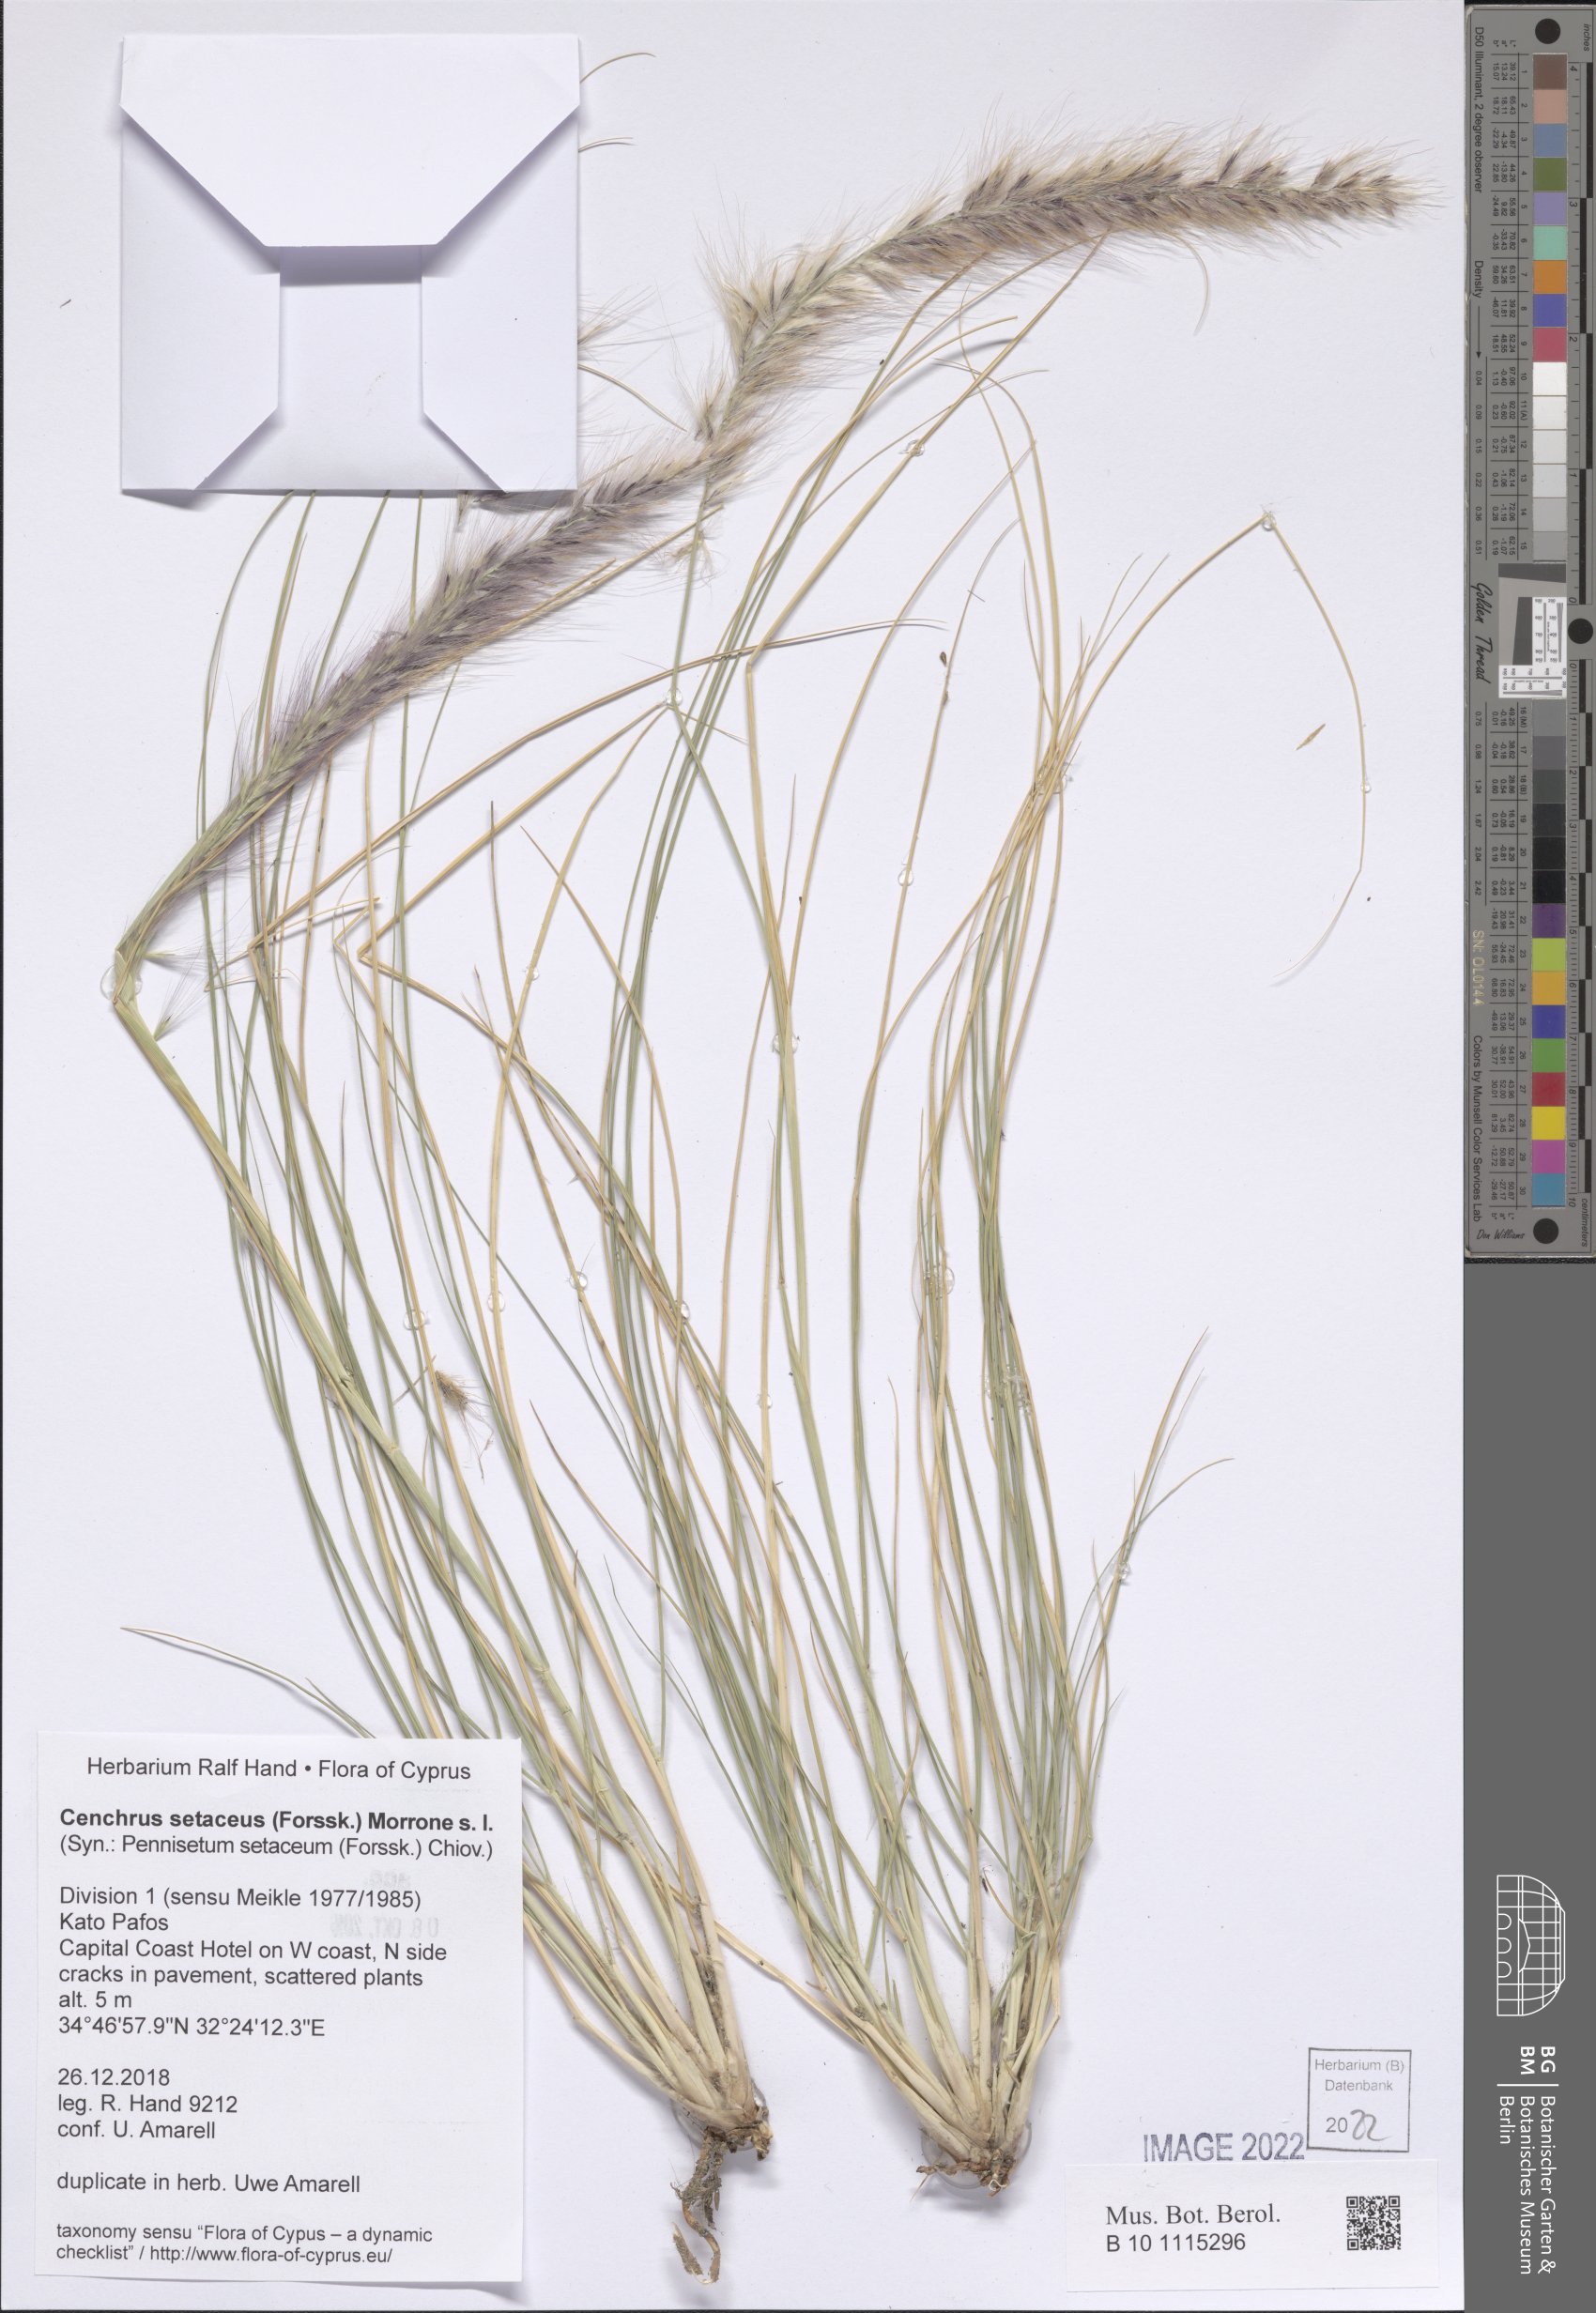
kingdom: Plantae
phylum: Tracheophyta
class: Liliopsida
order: Poales
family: Poaceae
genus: Cenchrus
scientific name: Cenchrus setaceus
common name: Crimson fountaingrass
